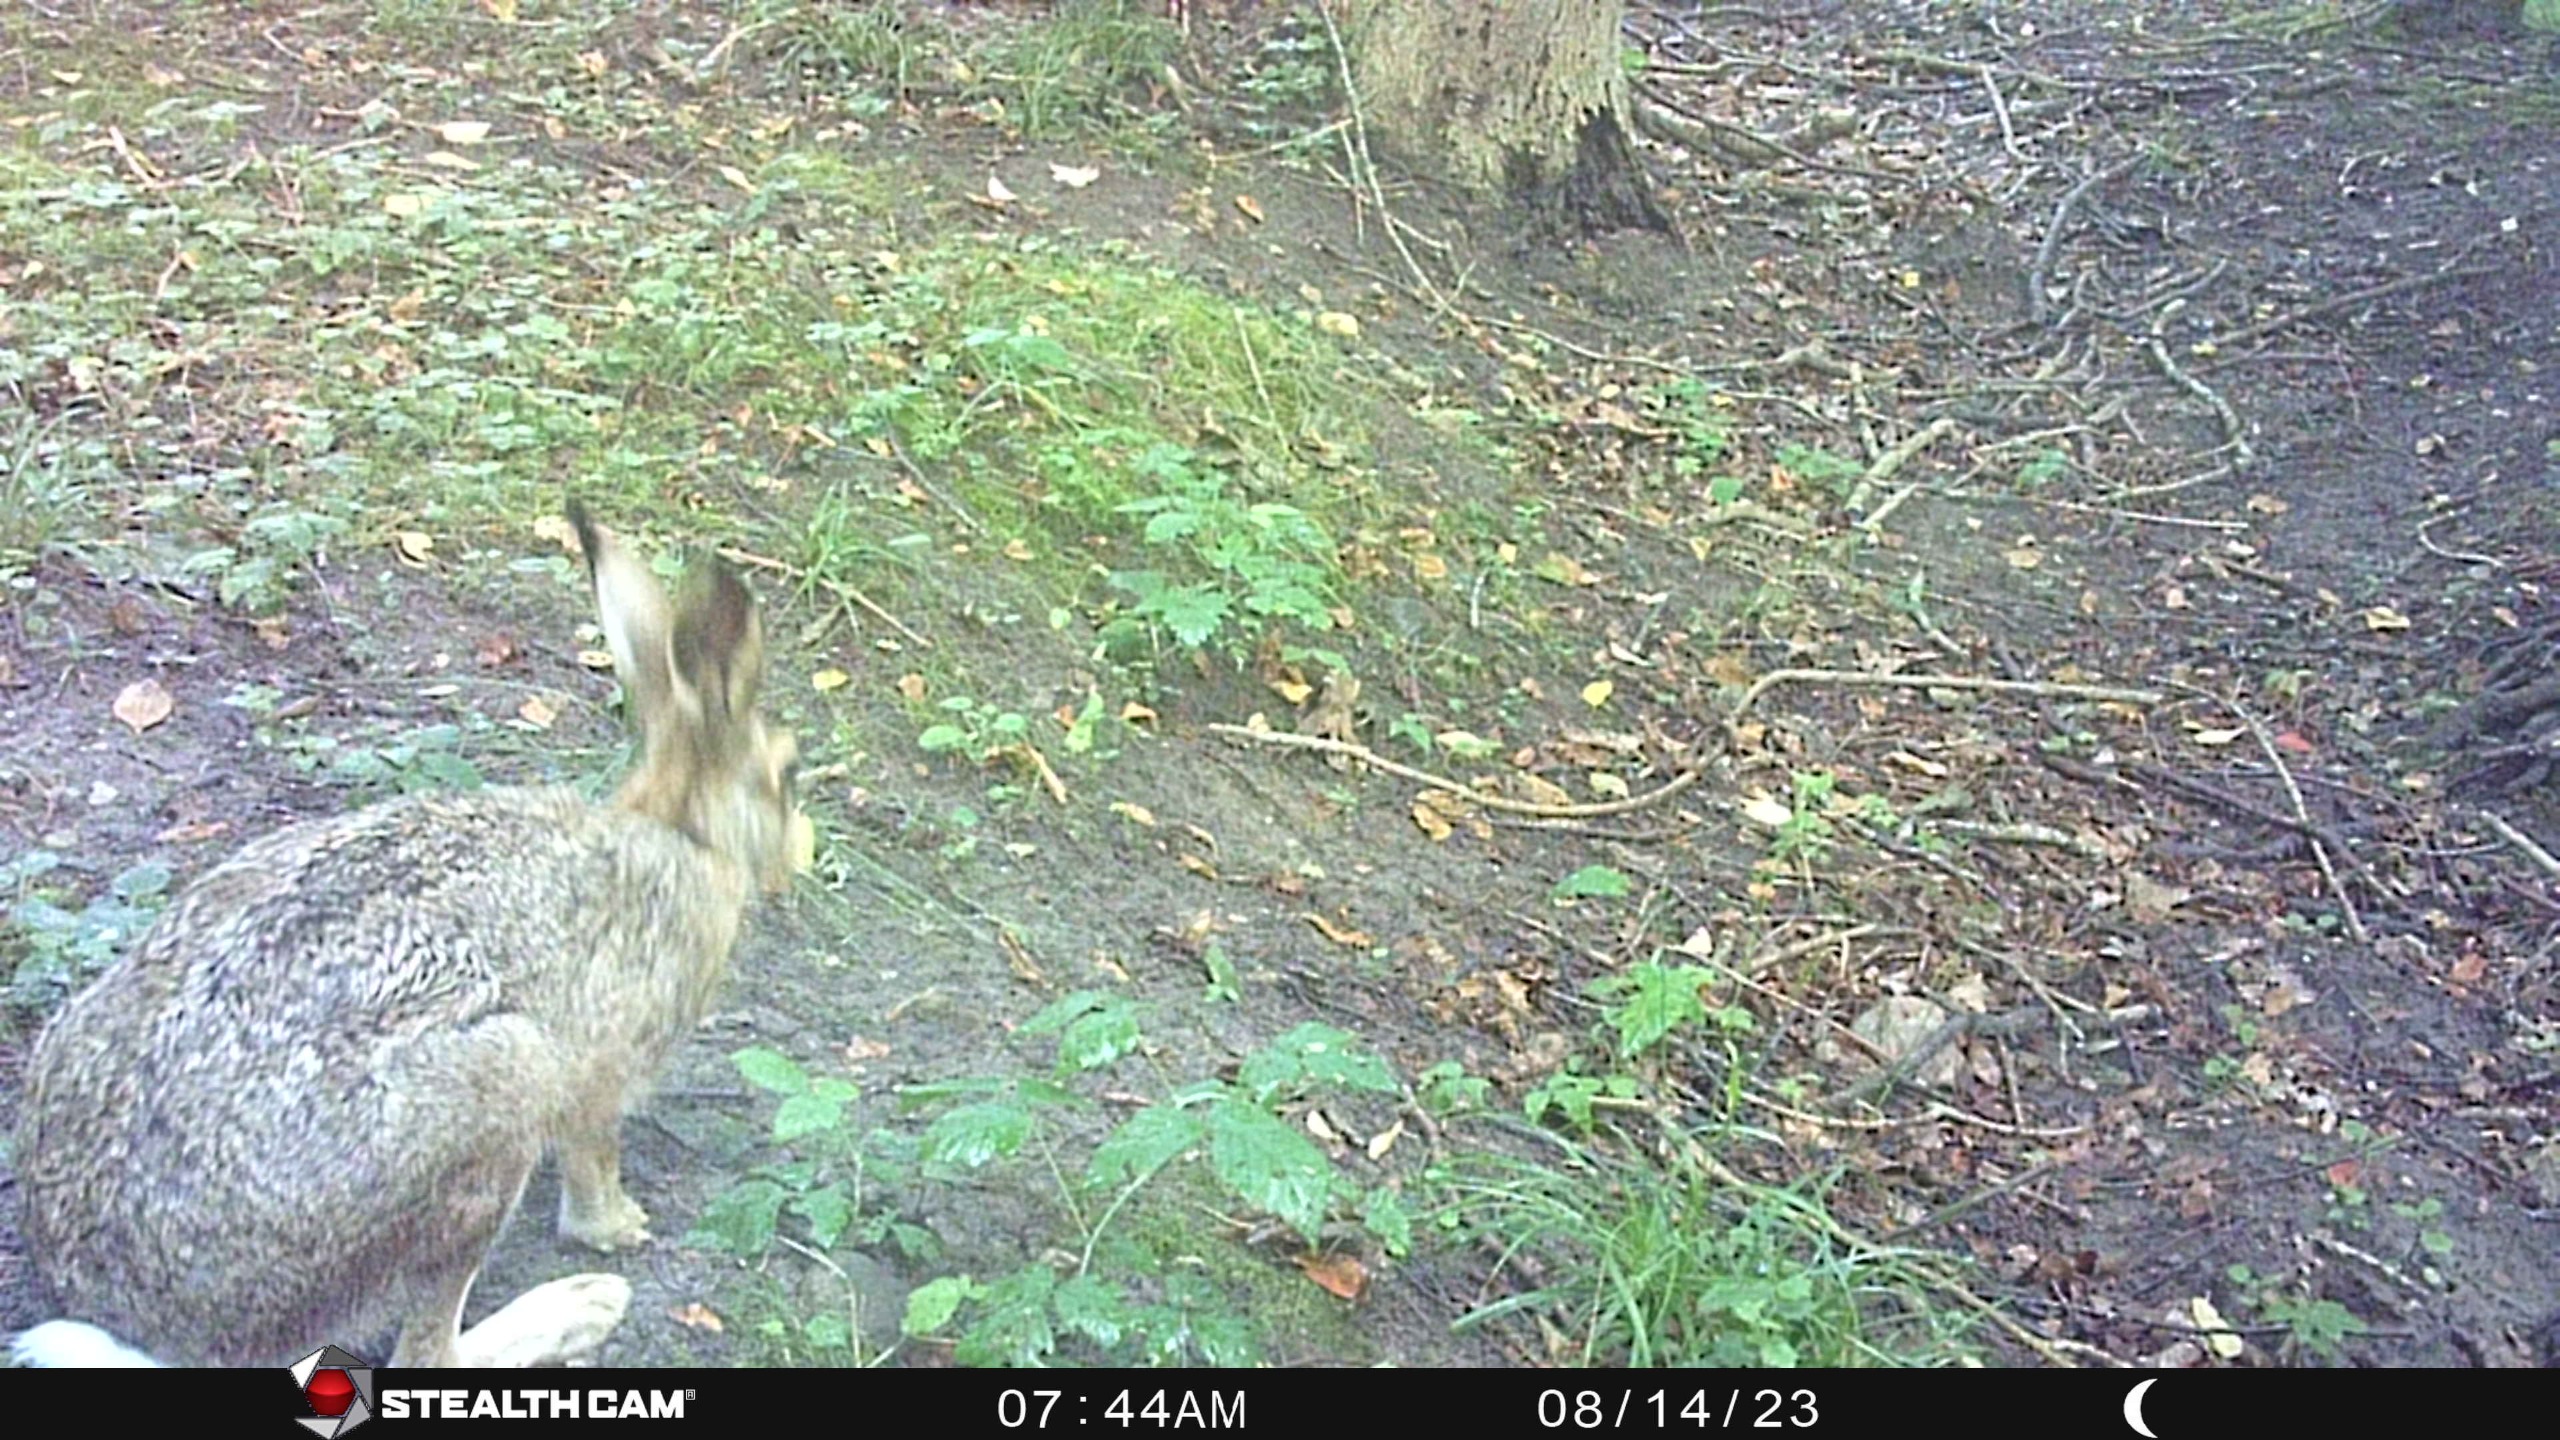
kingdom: Animalia
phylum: Chordata
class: Mammalia
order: Lagomorpha
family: Leporidae
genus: Lepus
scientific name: Lepus europaeus
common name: Hare
